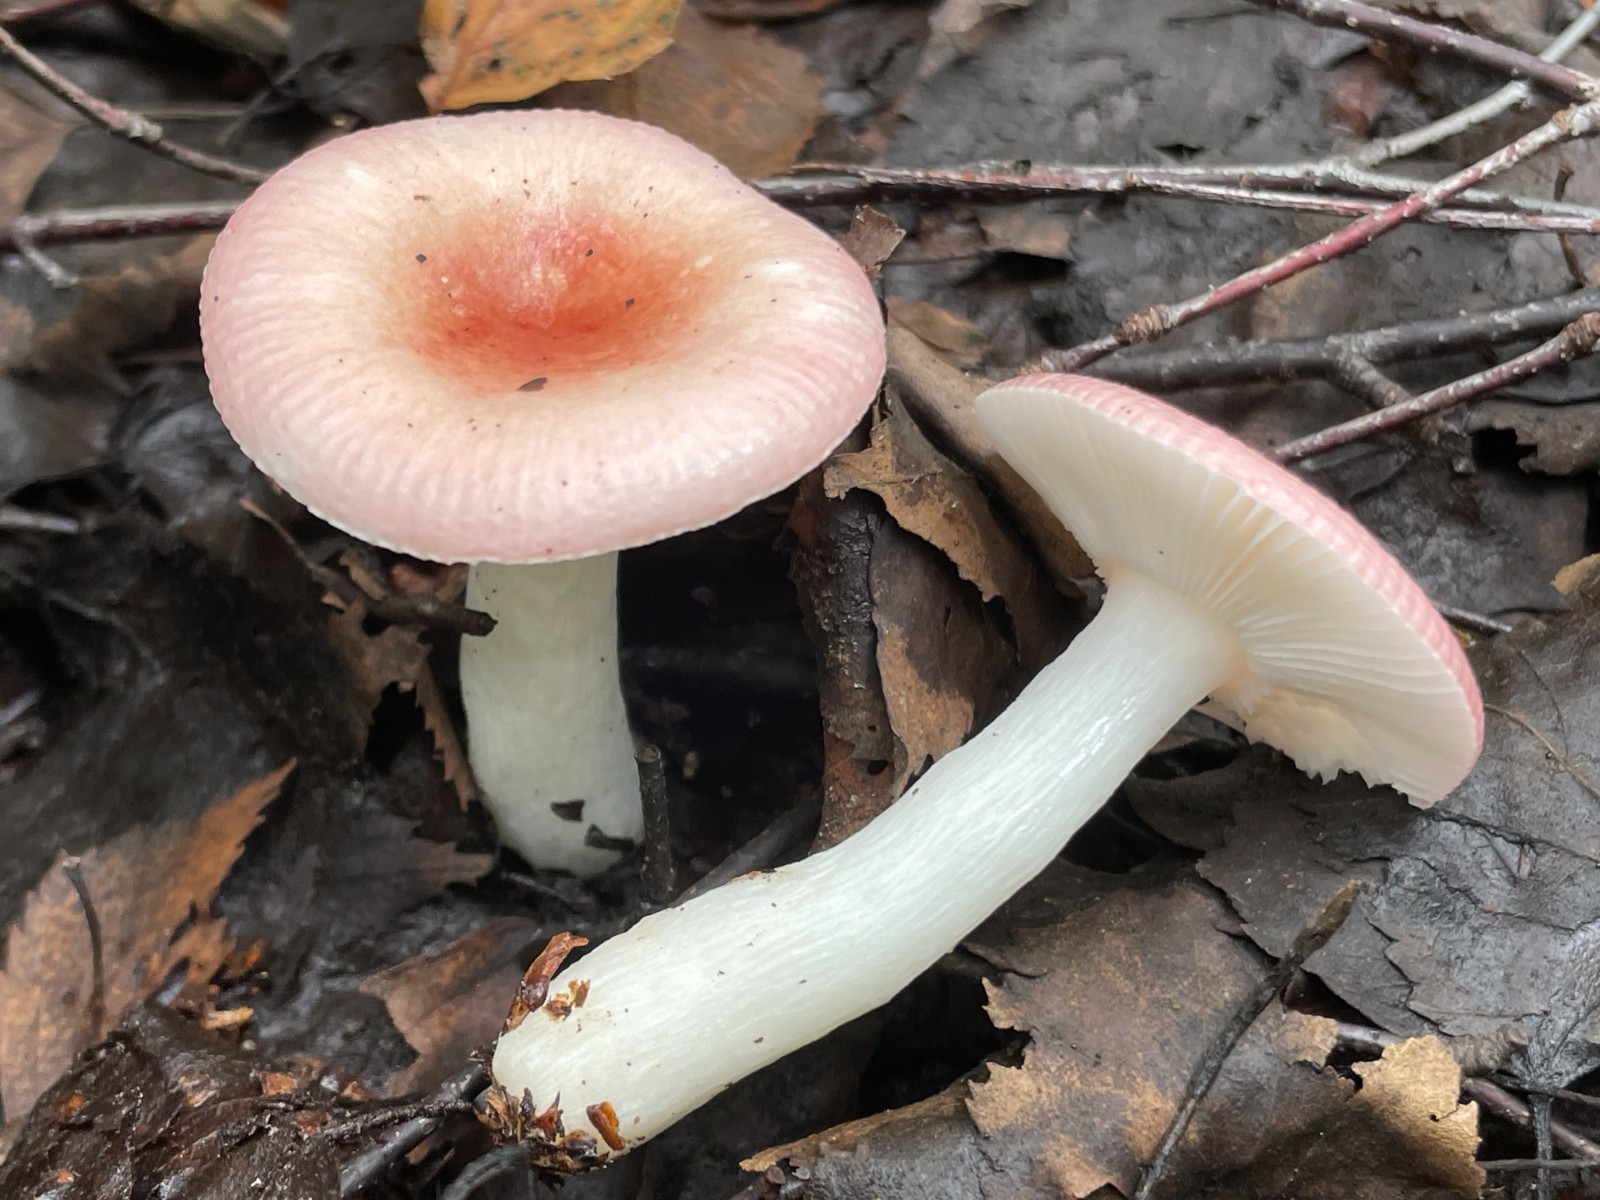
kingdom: Fungi
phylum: Basidiomycota
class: Agaricomycetes
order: Russulales
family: Russulaceae
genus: Russula
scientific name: Russula betularum
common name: bleg gift-skørhat
